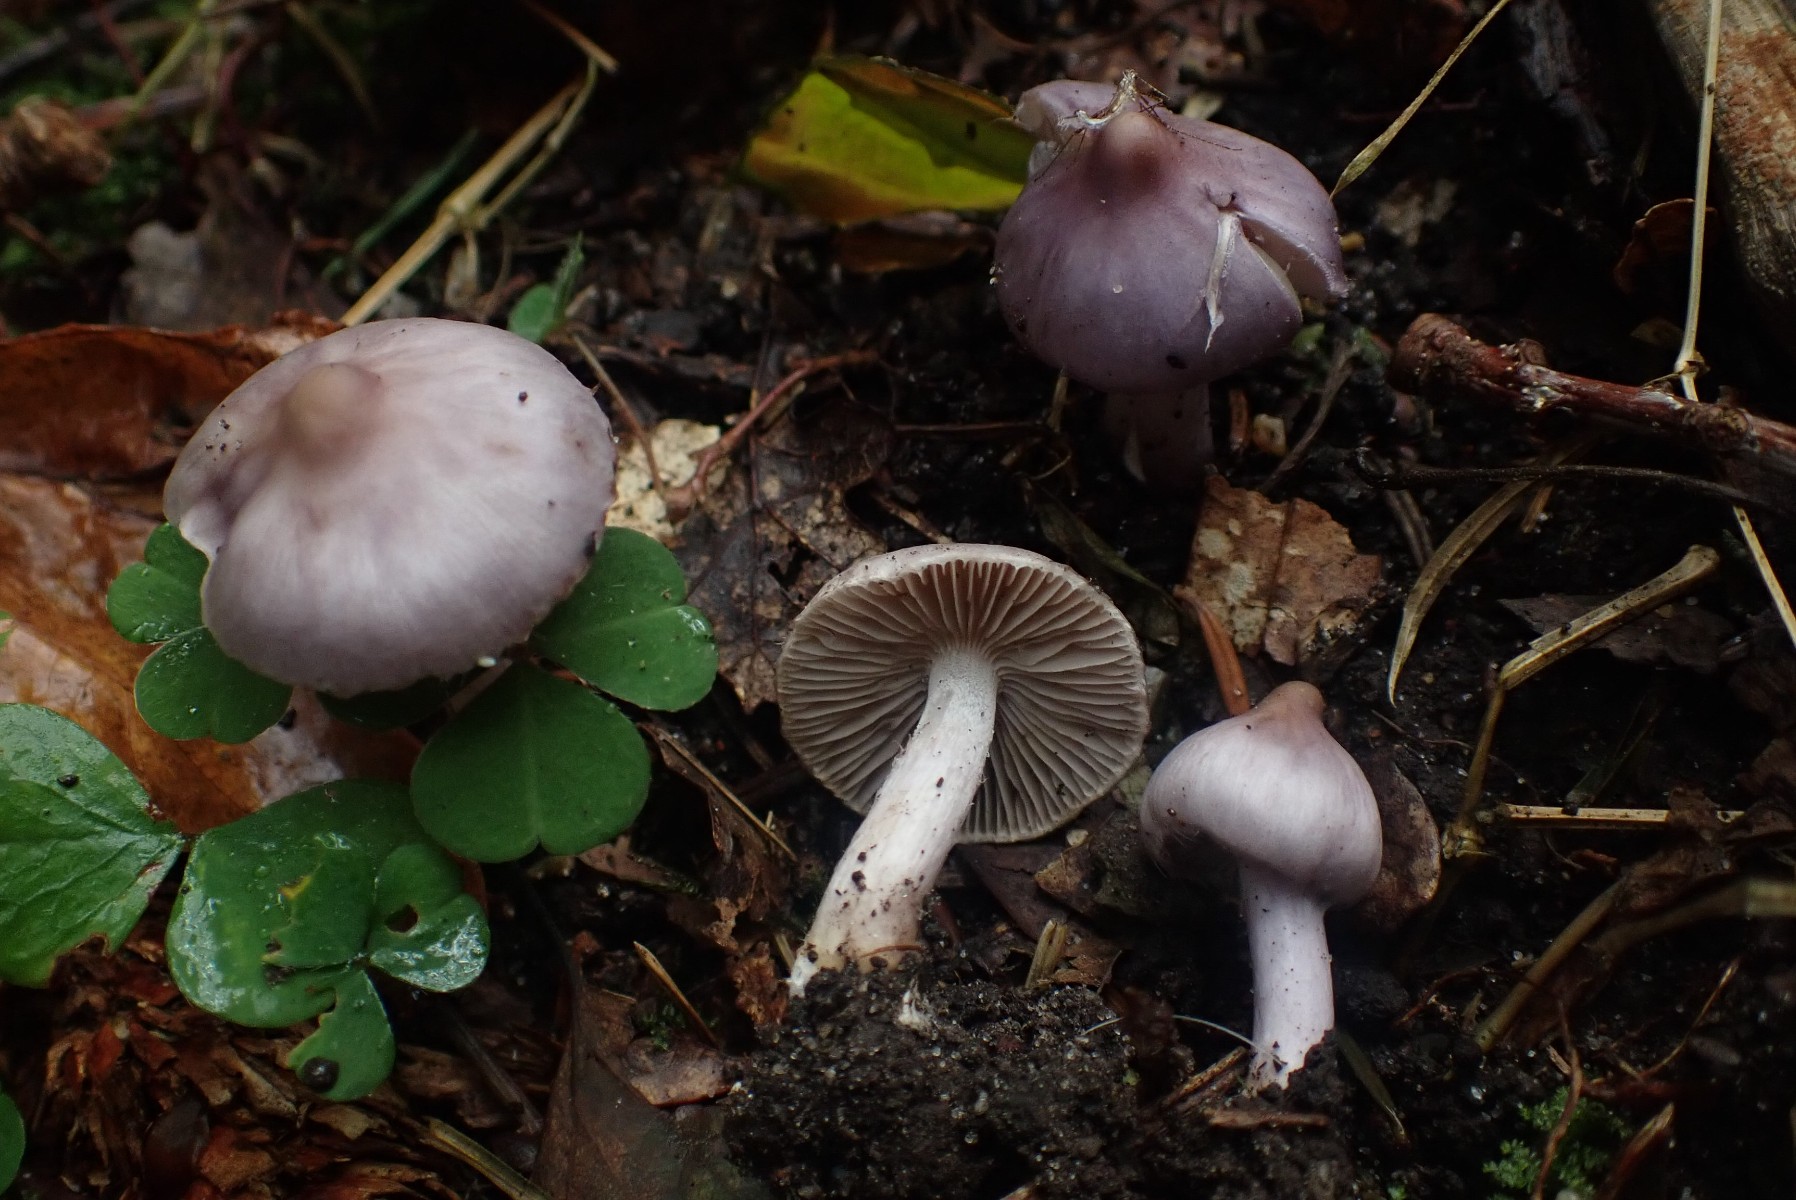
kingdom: Fungi
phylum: Basidiomycota
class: Agaricomycetes
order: Agaricales
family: Inocybaceae
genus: Inocybe
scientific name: Inocybe geophylla
